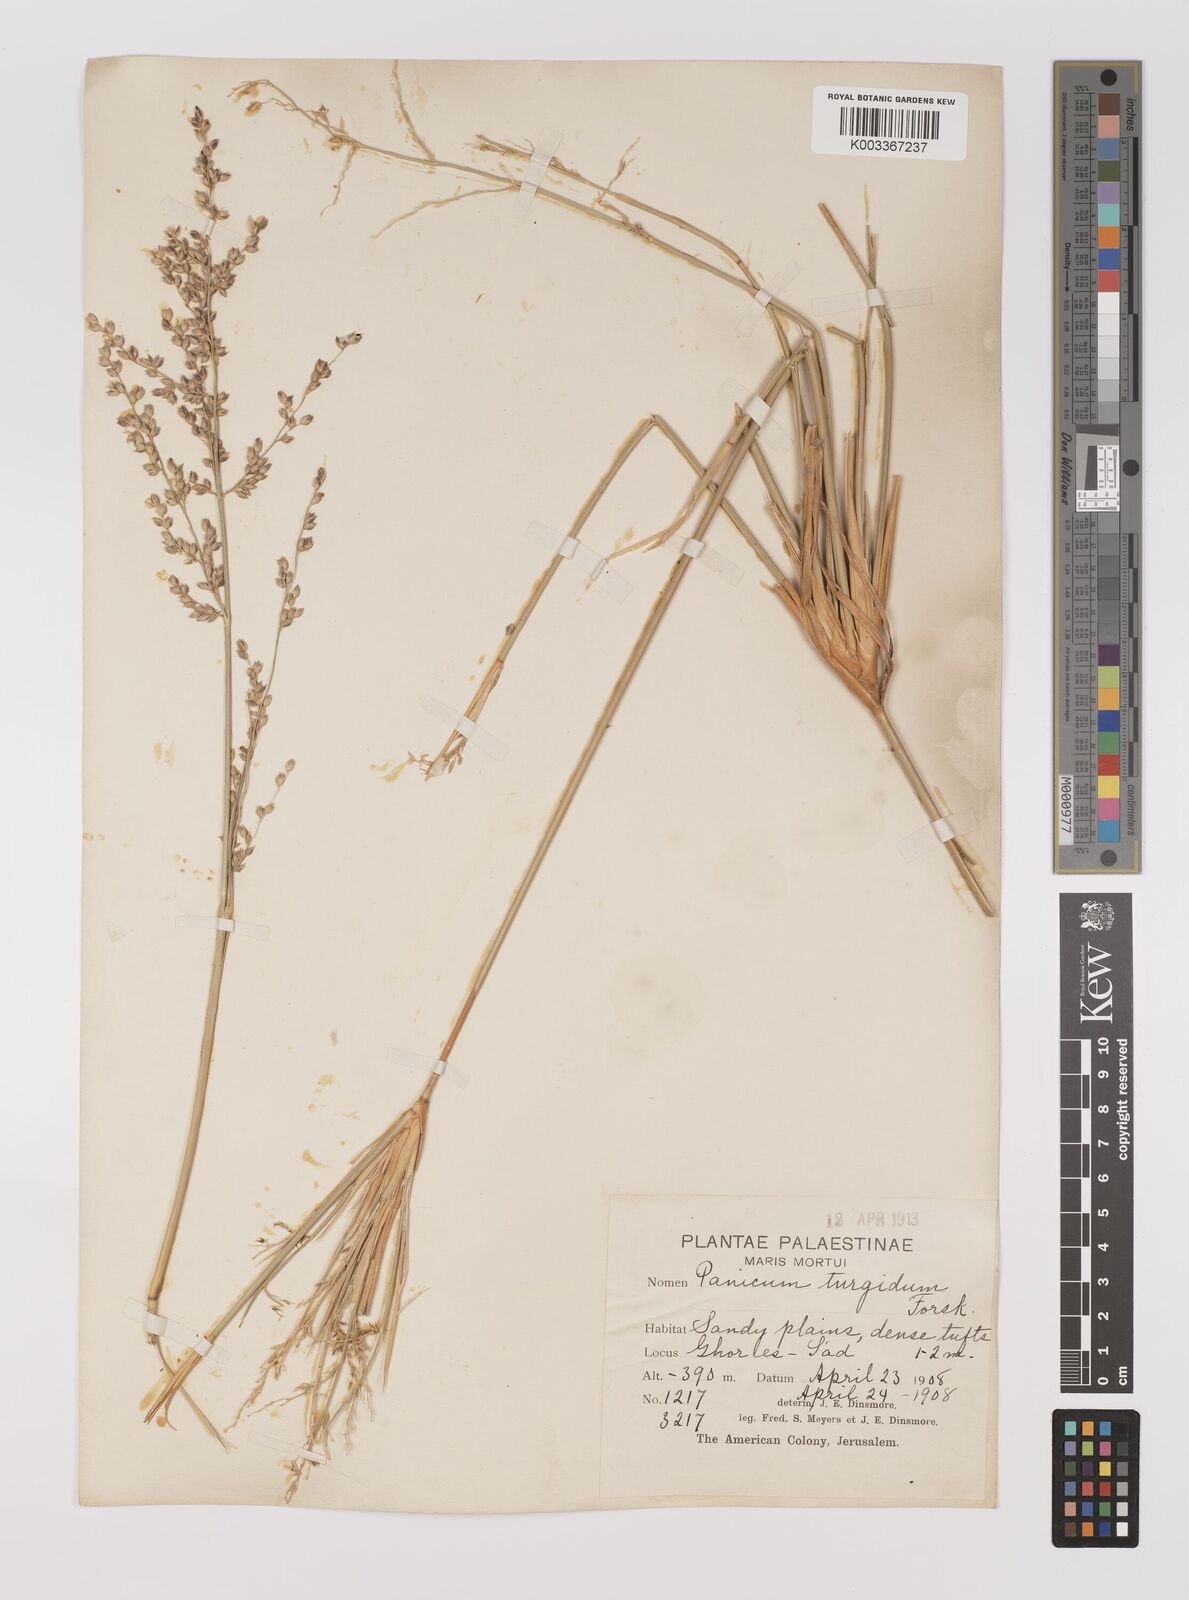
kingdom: Plantae
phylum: Tracheophyta
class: Liliopsida
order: Poales
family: Poaceae
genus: Panicum
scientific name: Panicum turgidum
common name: Desert grass
